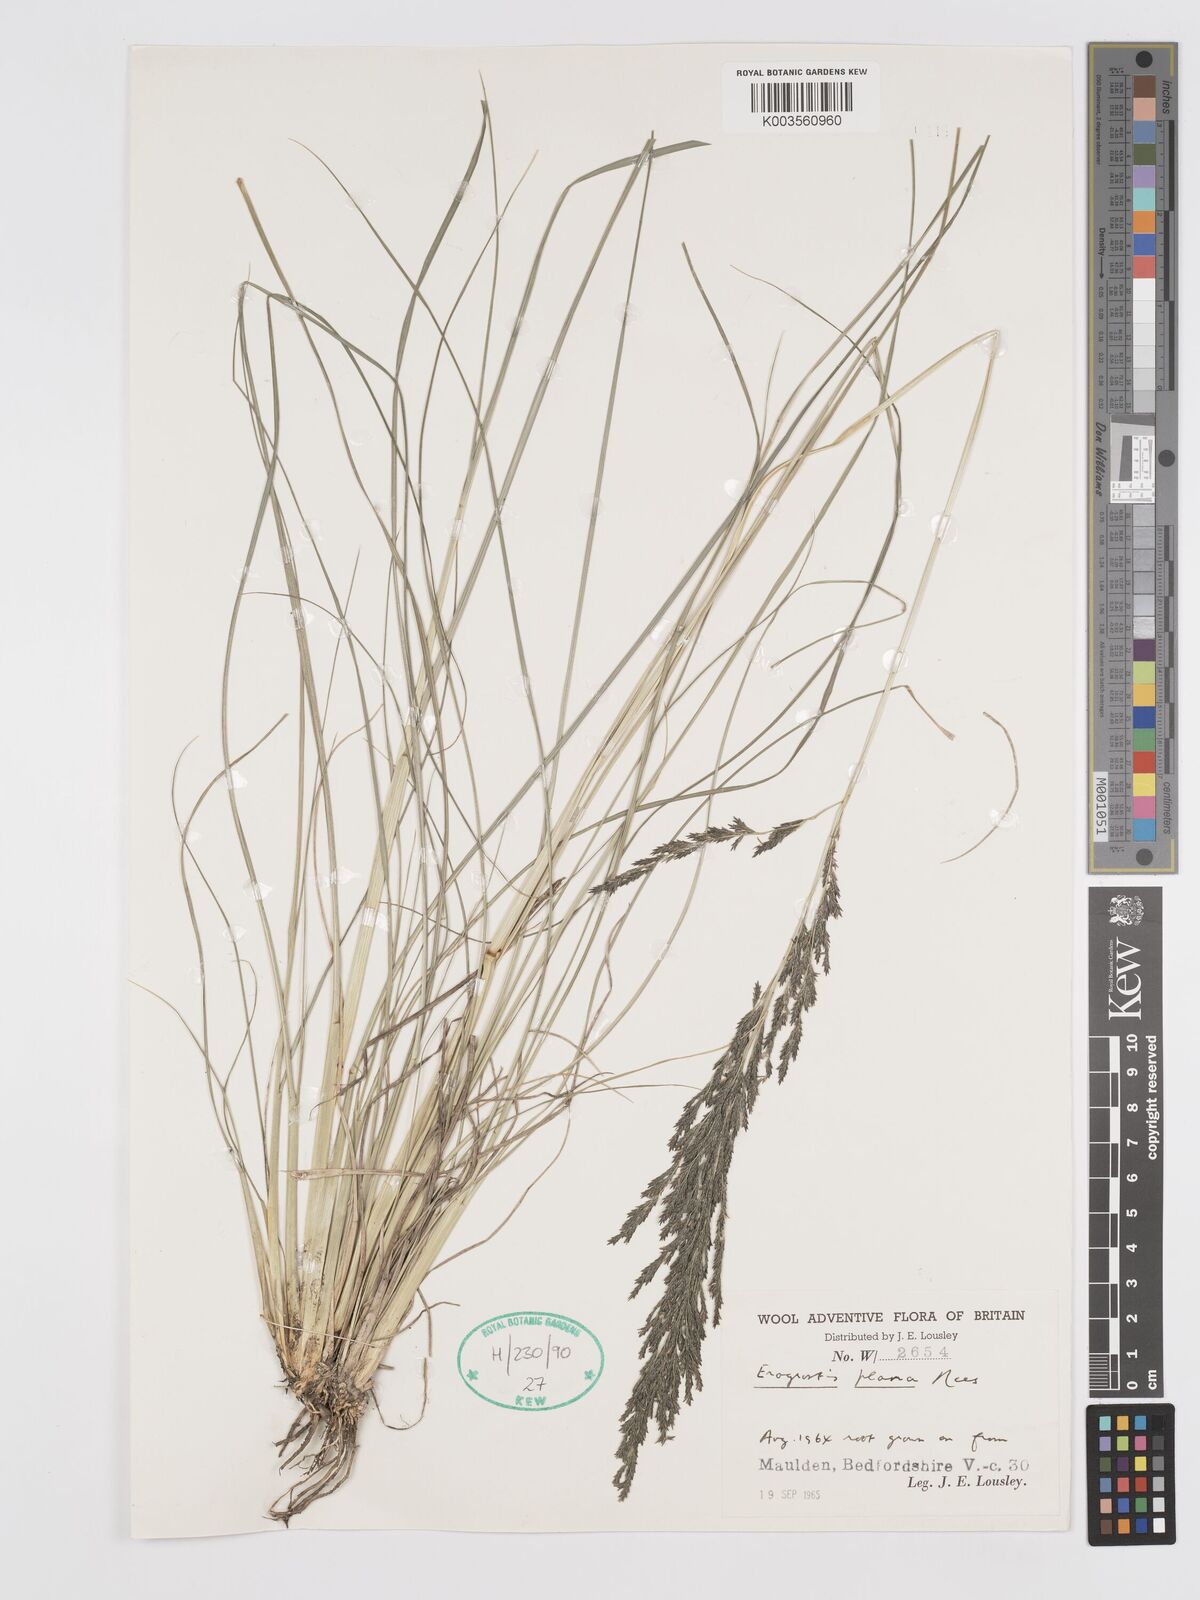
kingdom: Plantae
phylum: Tracheophyta
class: Liliopsida
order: Poales
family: Poaceae
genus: Eragrostis
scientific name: Eragrostis plana
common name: South african lovegrass
